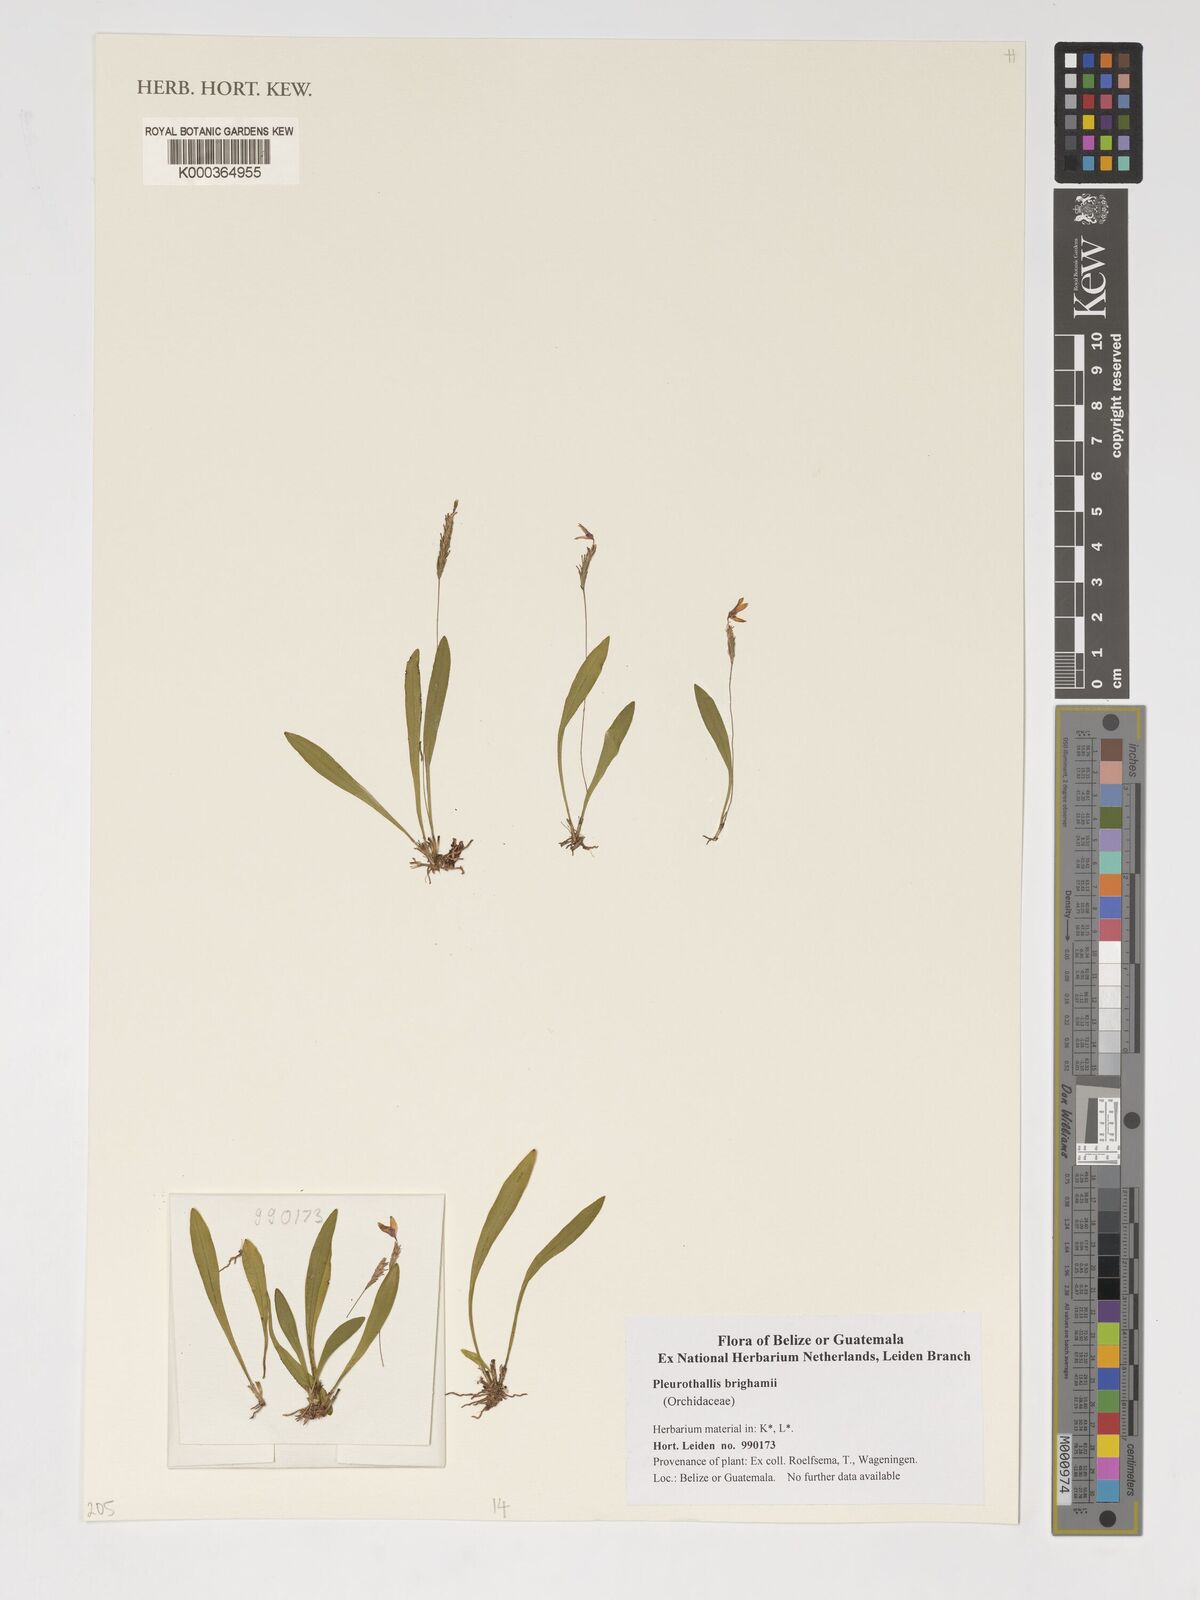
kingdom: Plantae
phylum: Tracheophyta
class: Liliopsida
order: Asparagales
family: Orchidaceae
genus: Specklinia
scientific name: Specklinia brighamii
